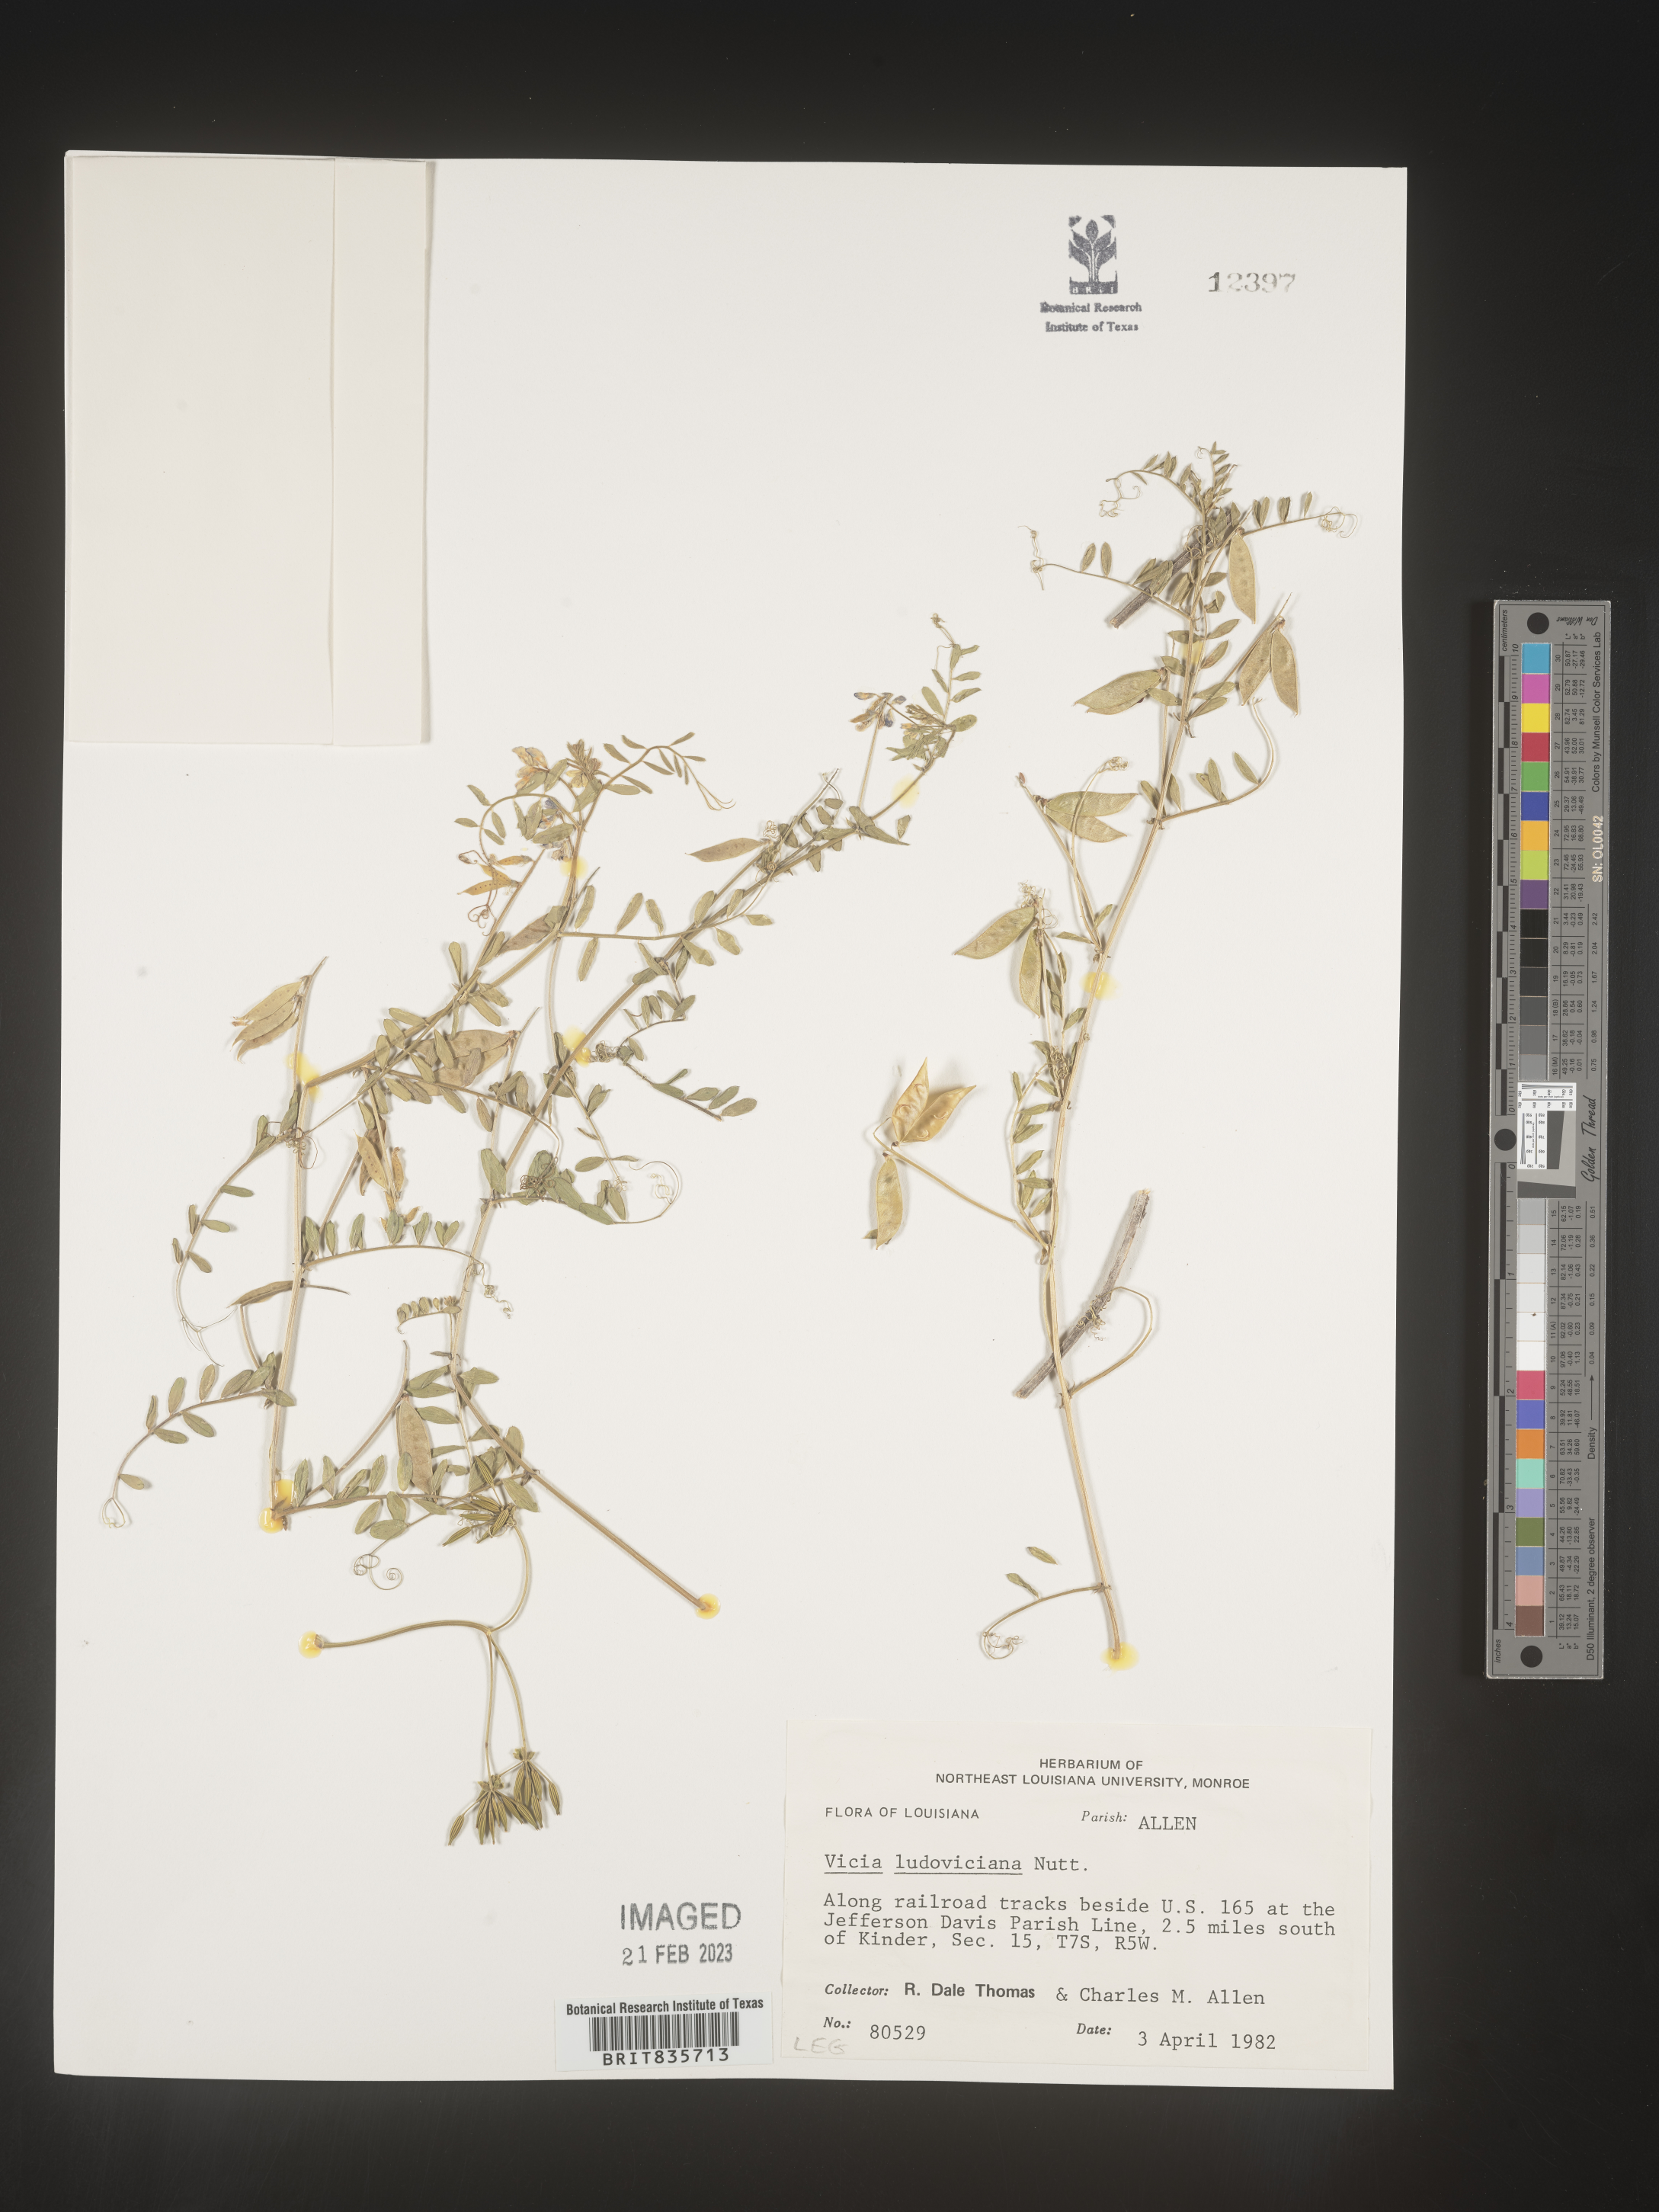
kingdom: Plantae
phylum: Tracheophyta
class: Magnoliopsida
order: Fabales
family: Fabaceae
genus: Vicia
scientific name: Vicia ludoviciana
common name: Louisiana vetch
